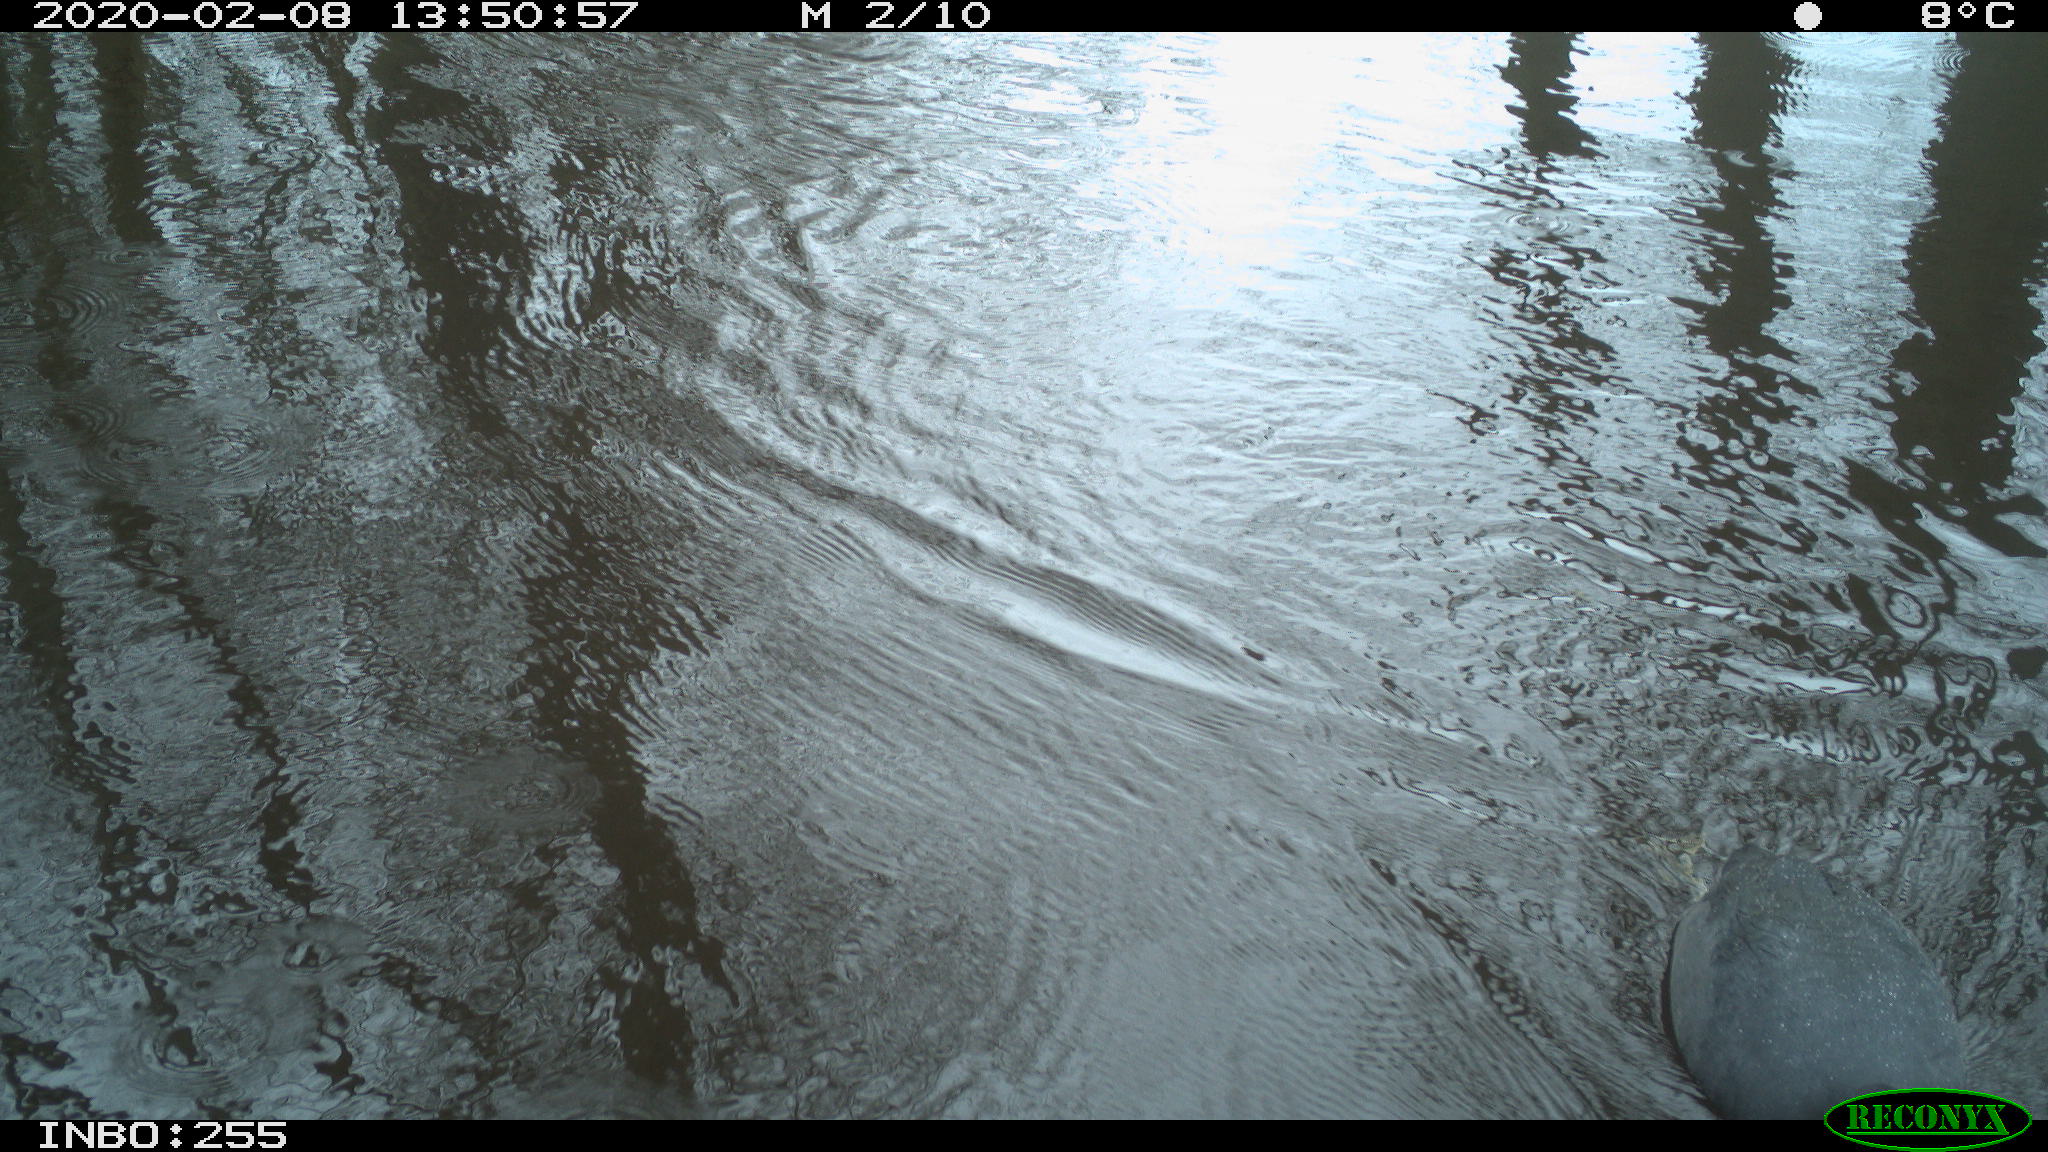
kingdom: Animalia
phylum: Chordata
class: Aves
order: Gruiformes
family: Rallidae
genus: Fulica
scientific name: Fulica atra
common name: Eurasian coot
